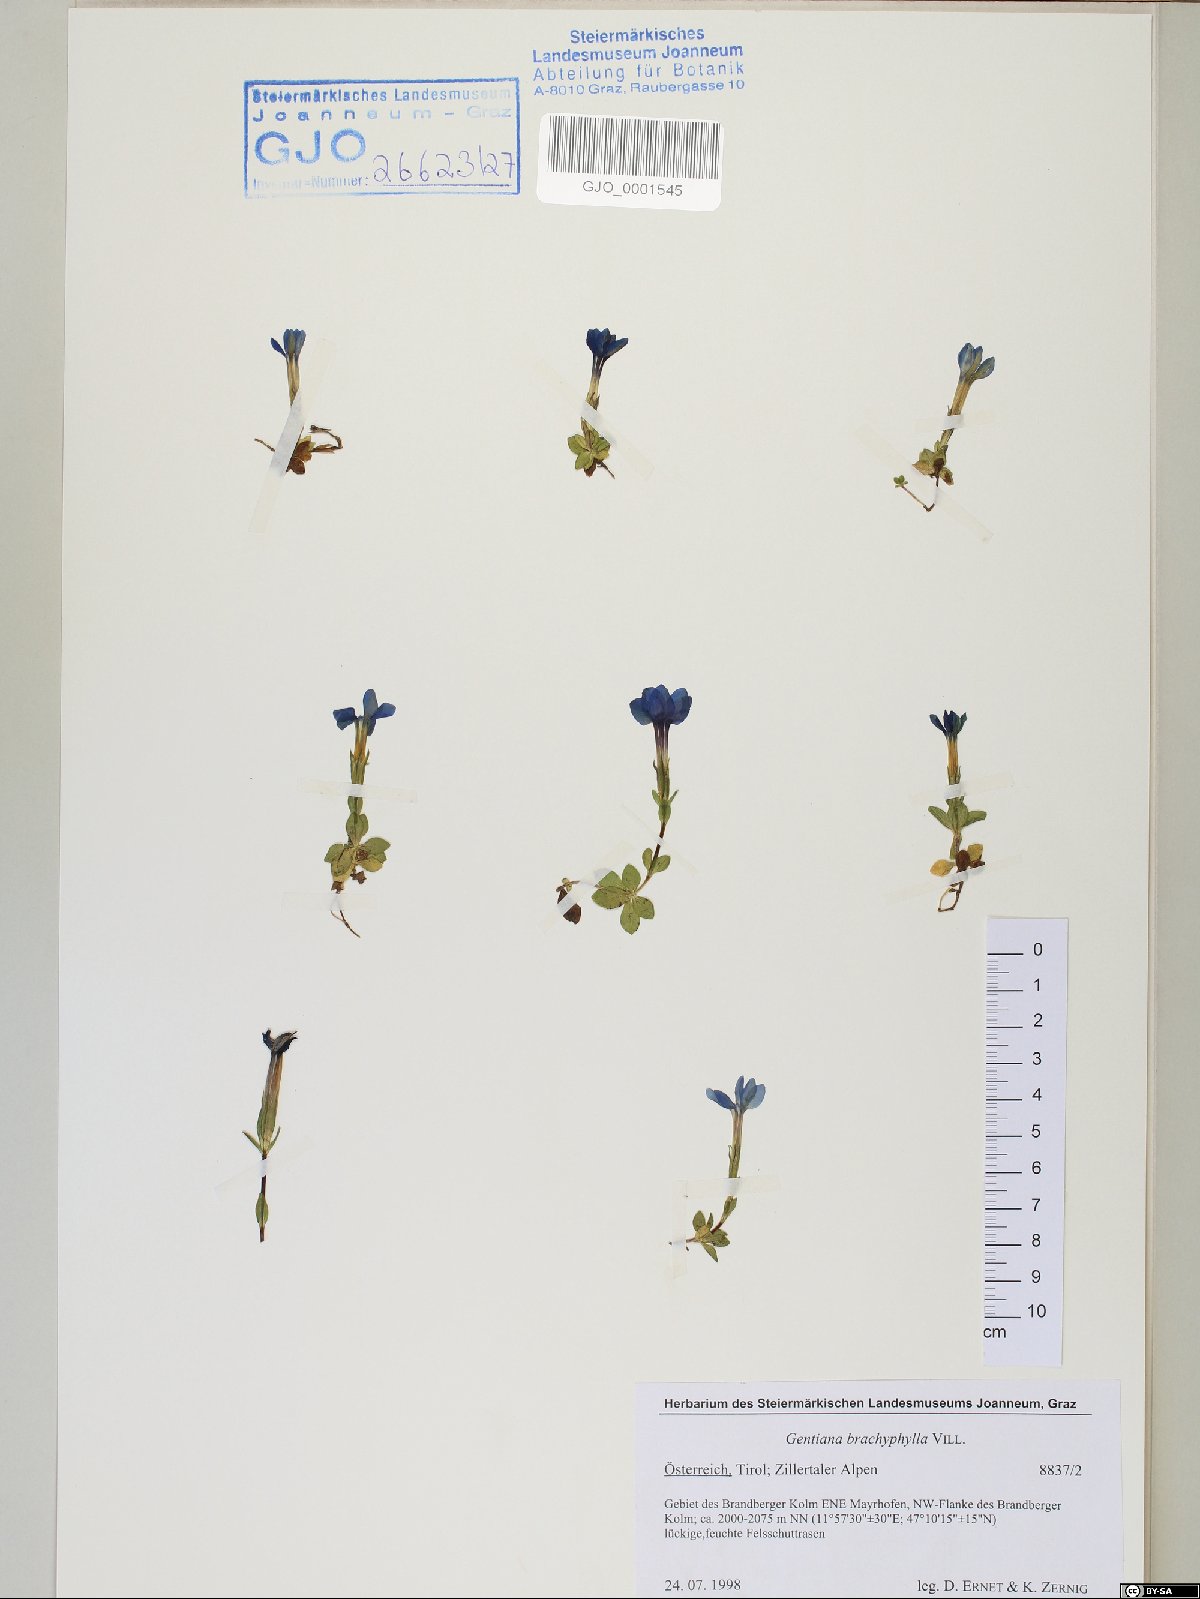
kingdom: Plantae
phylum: Tracheophyta
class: Magnoliopsida
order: Gentianales
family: Gentianaceae
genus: Gentiana
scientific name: Gentiana brachyphylla
